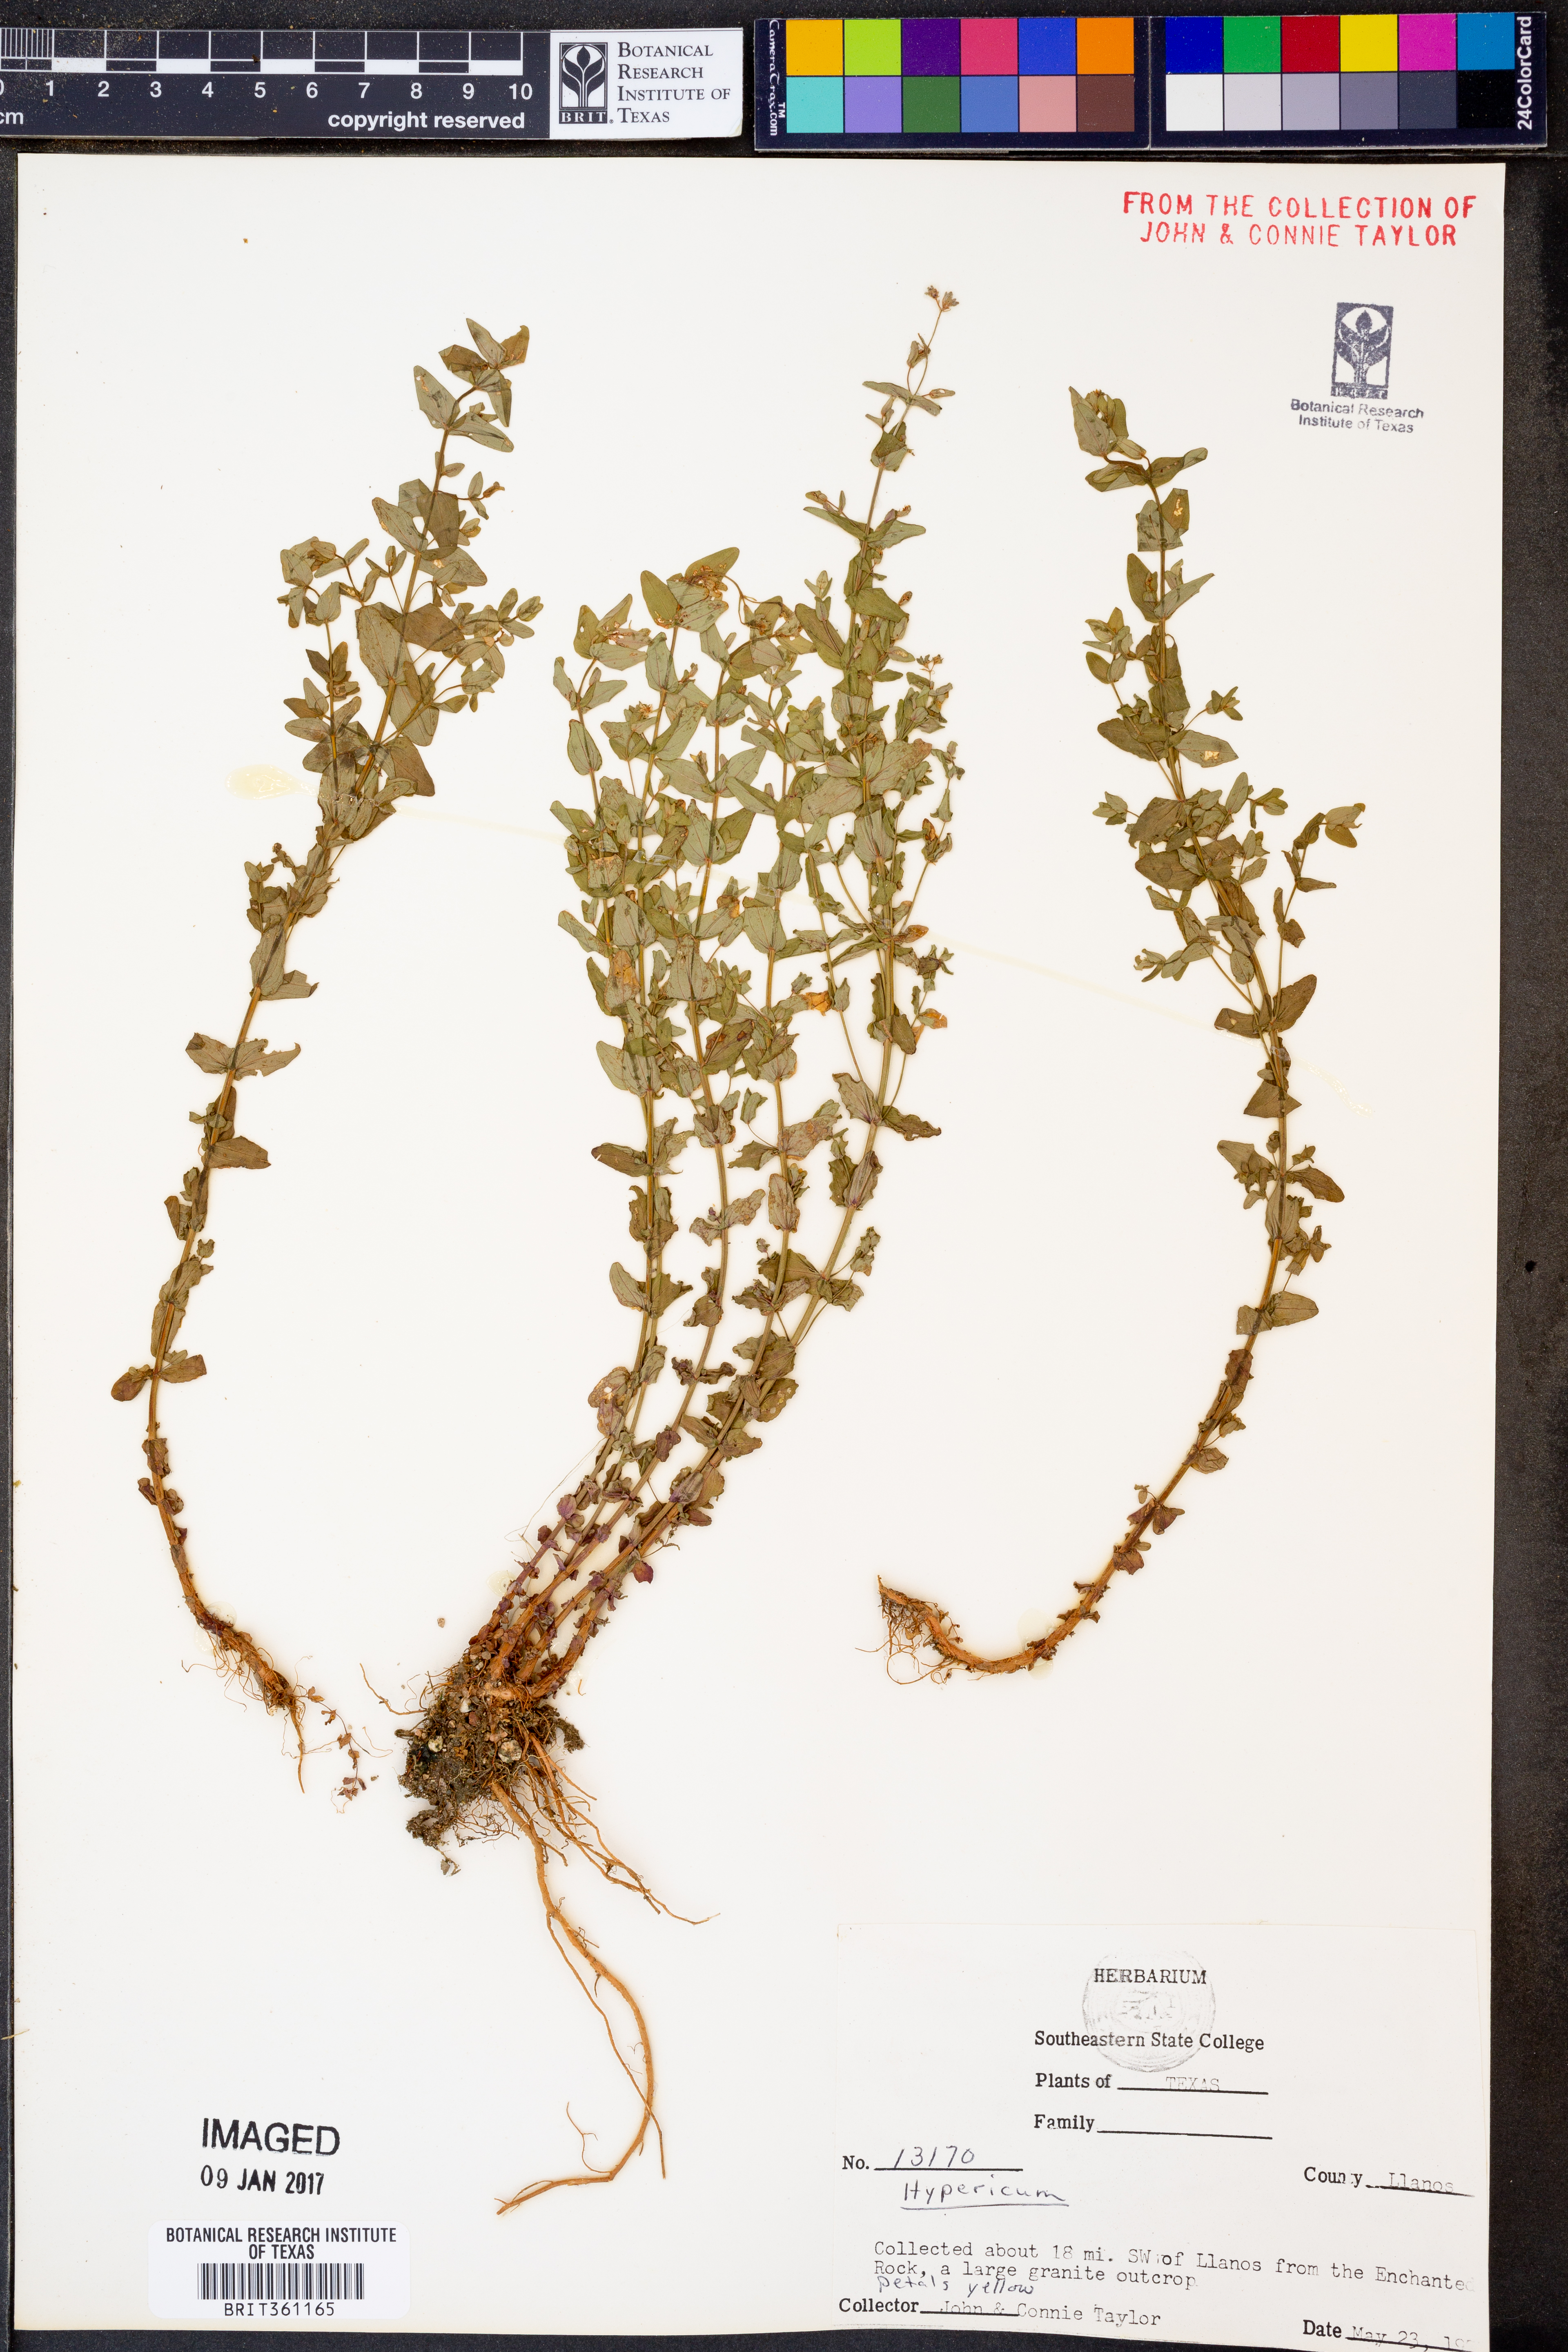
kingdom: Plantae
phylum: Tracheophyta
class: Magnoliopsida
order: Malpighiales
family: Hypericaceae
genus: Hypericum
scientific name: Hypericum
